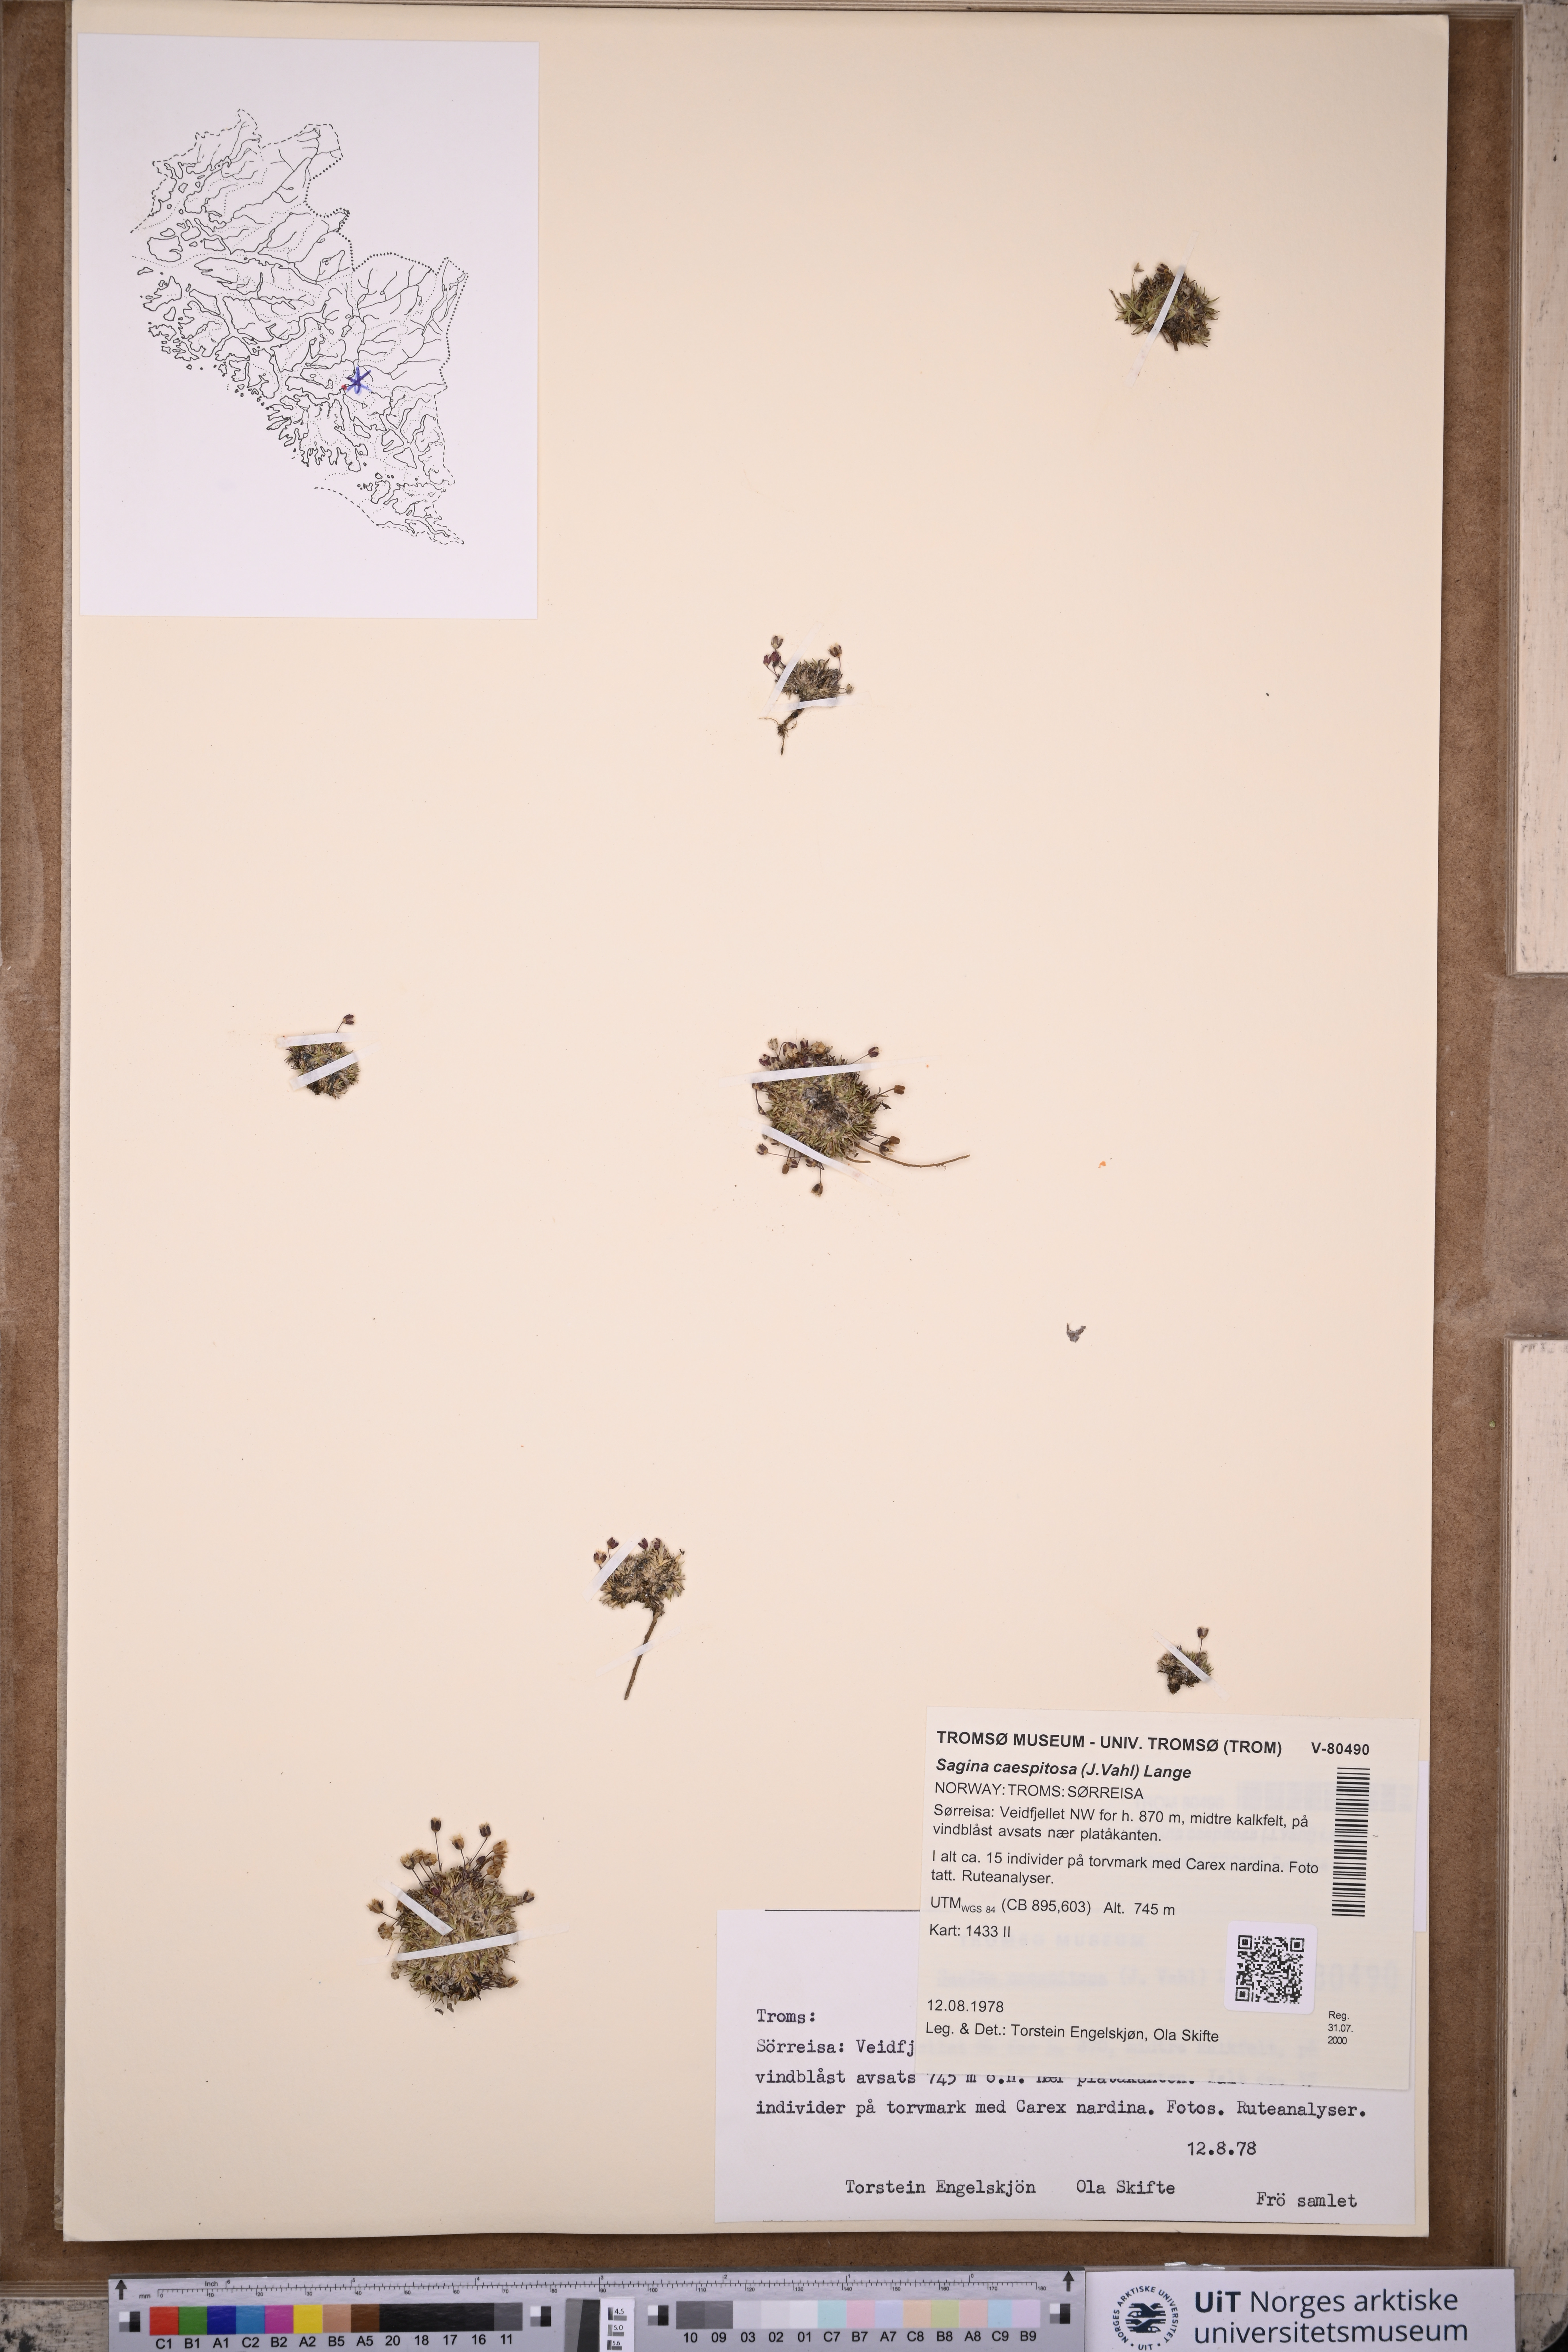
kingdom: Plantae
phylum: Tracheophyta
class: Magnoliopsida
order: Caryophyllales
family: Caryophyllaceae
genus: Sagina
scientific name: Sagina caespitosa
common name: Tufted pearlwort
